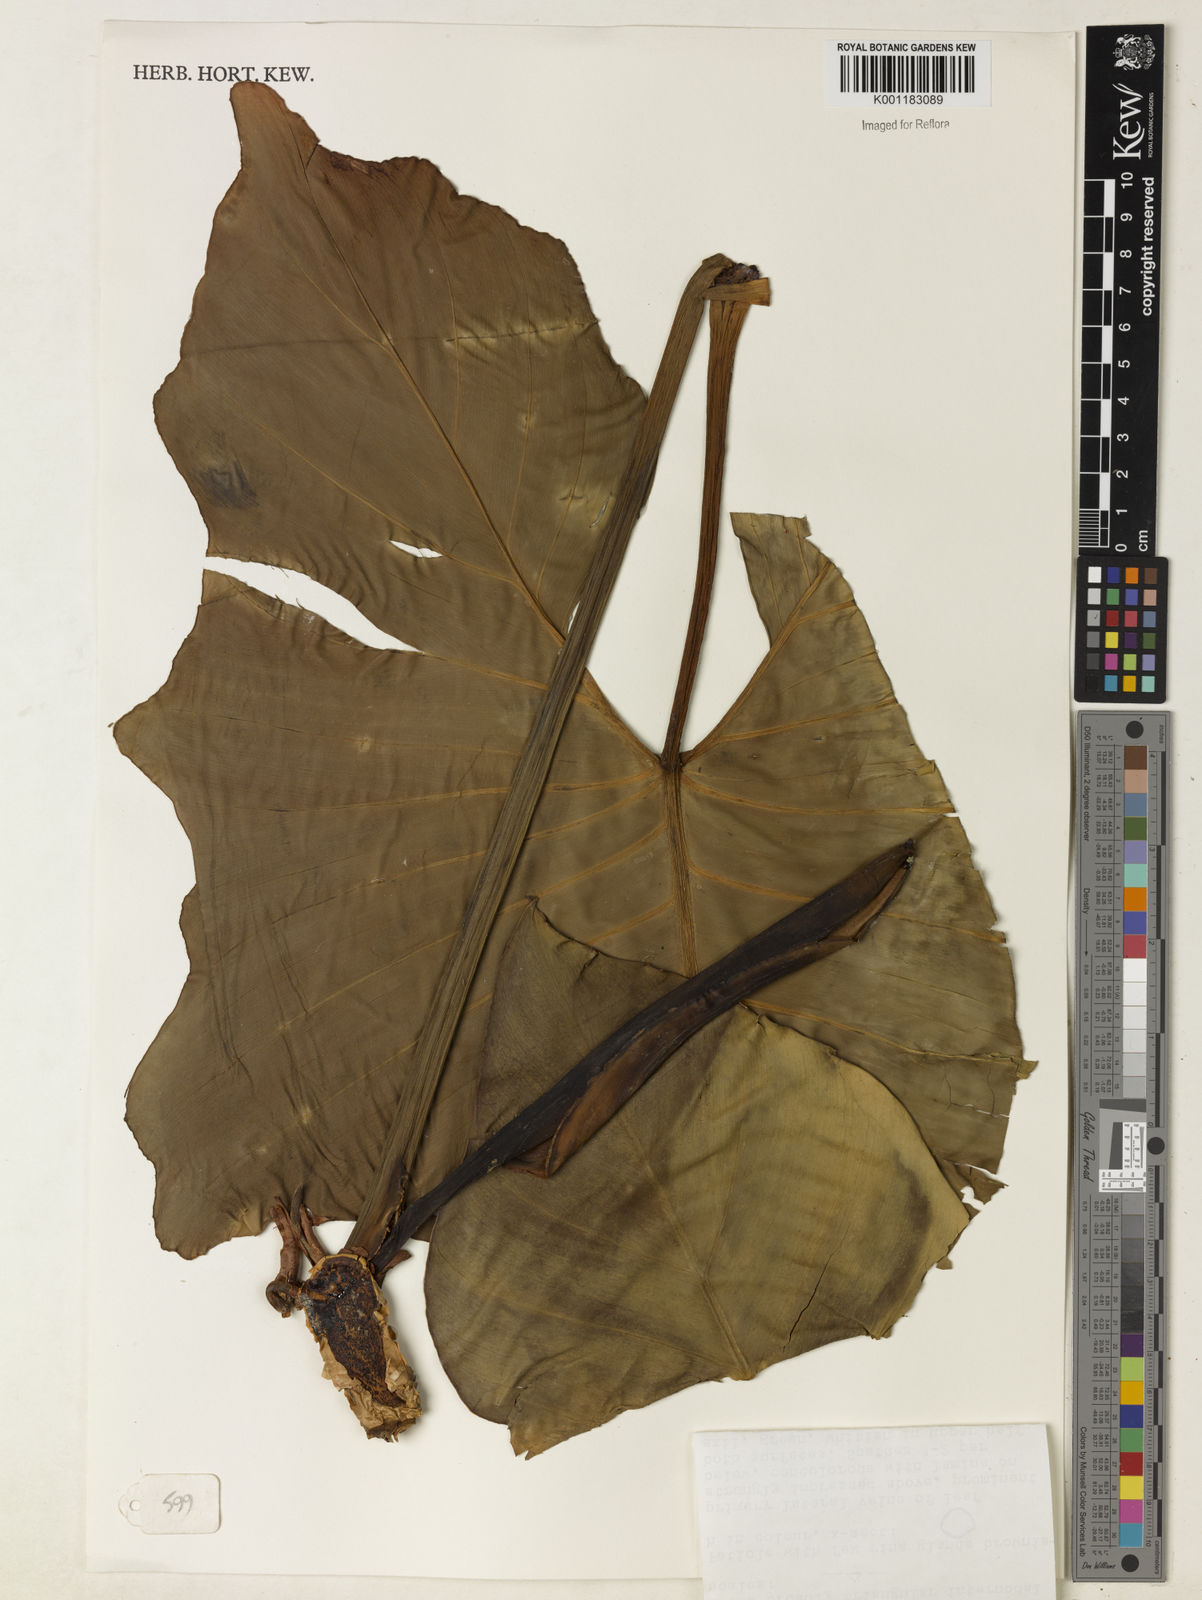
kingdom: Plantae
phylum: Tracheophyta
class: Liliopsida
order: Alismatales
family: Araceae
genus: Philodendron
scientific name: Philodendron bipennifolium
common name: Fiddle-leaf philodendron
